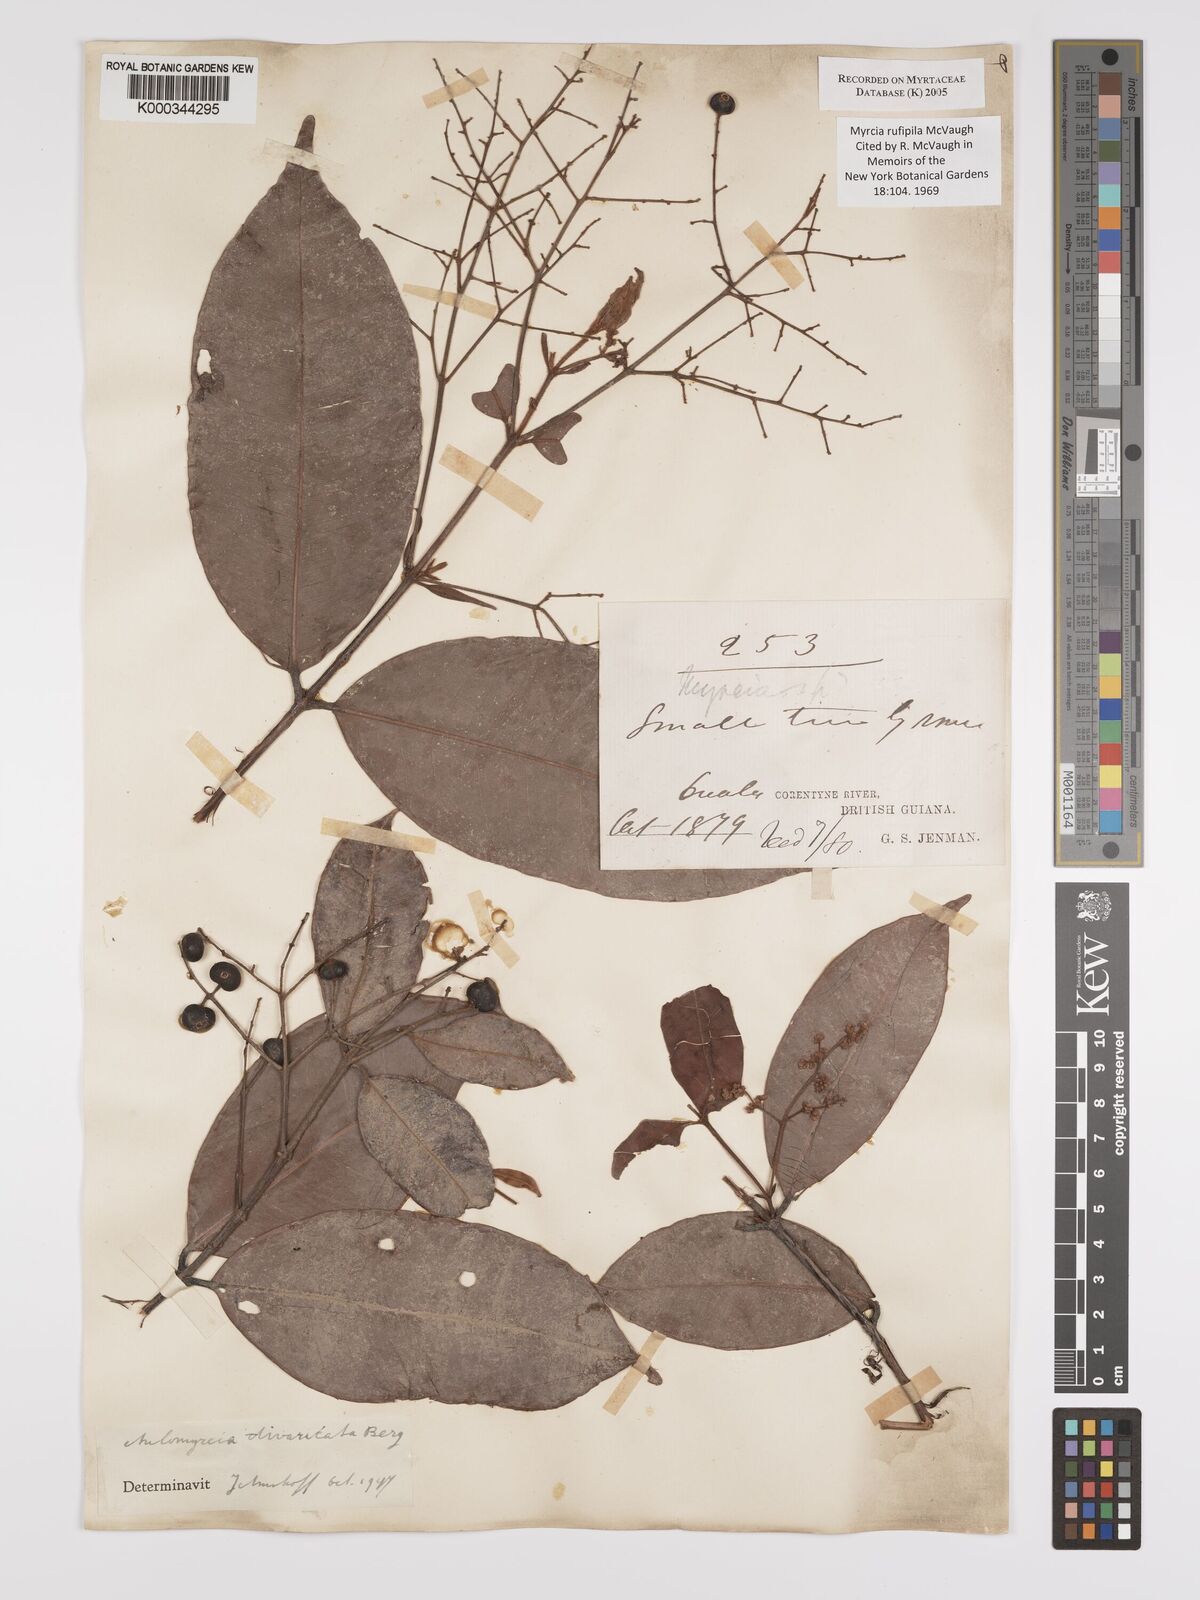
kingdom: Plantae
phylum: Tracheophyta
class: Magnoliopsida
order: Myrtales
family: Myrtaceae
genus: Myrcia
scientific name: Myrcia rufipila
